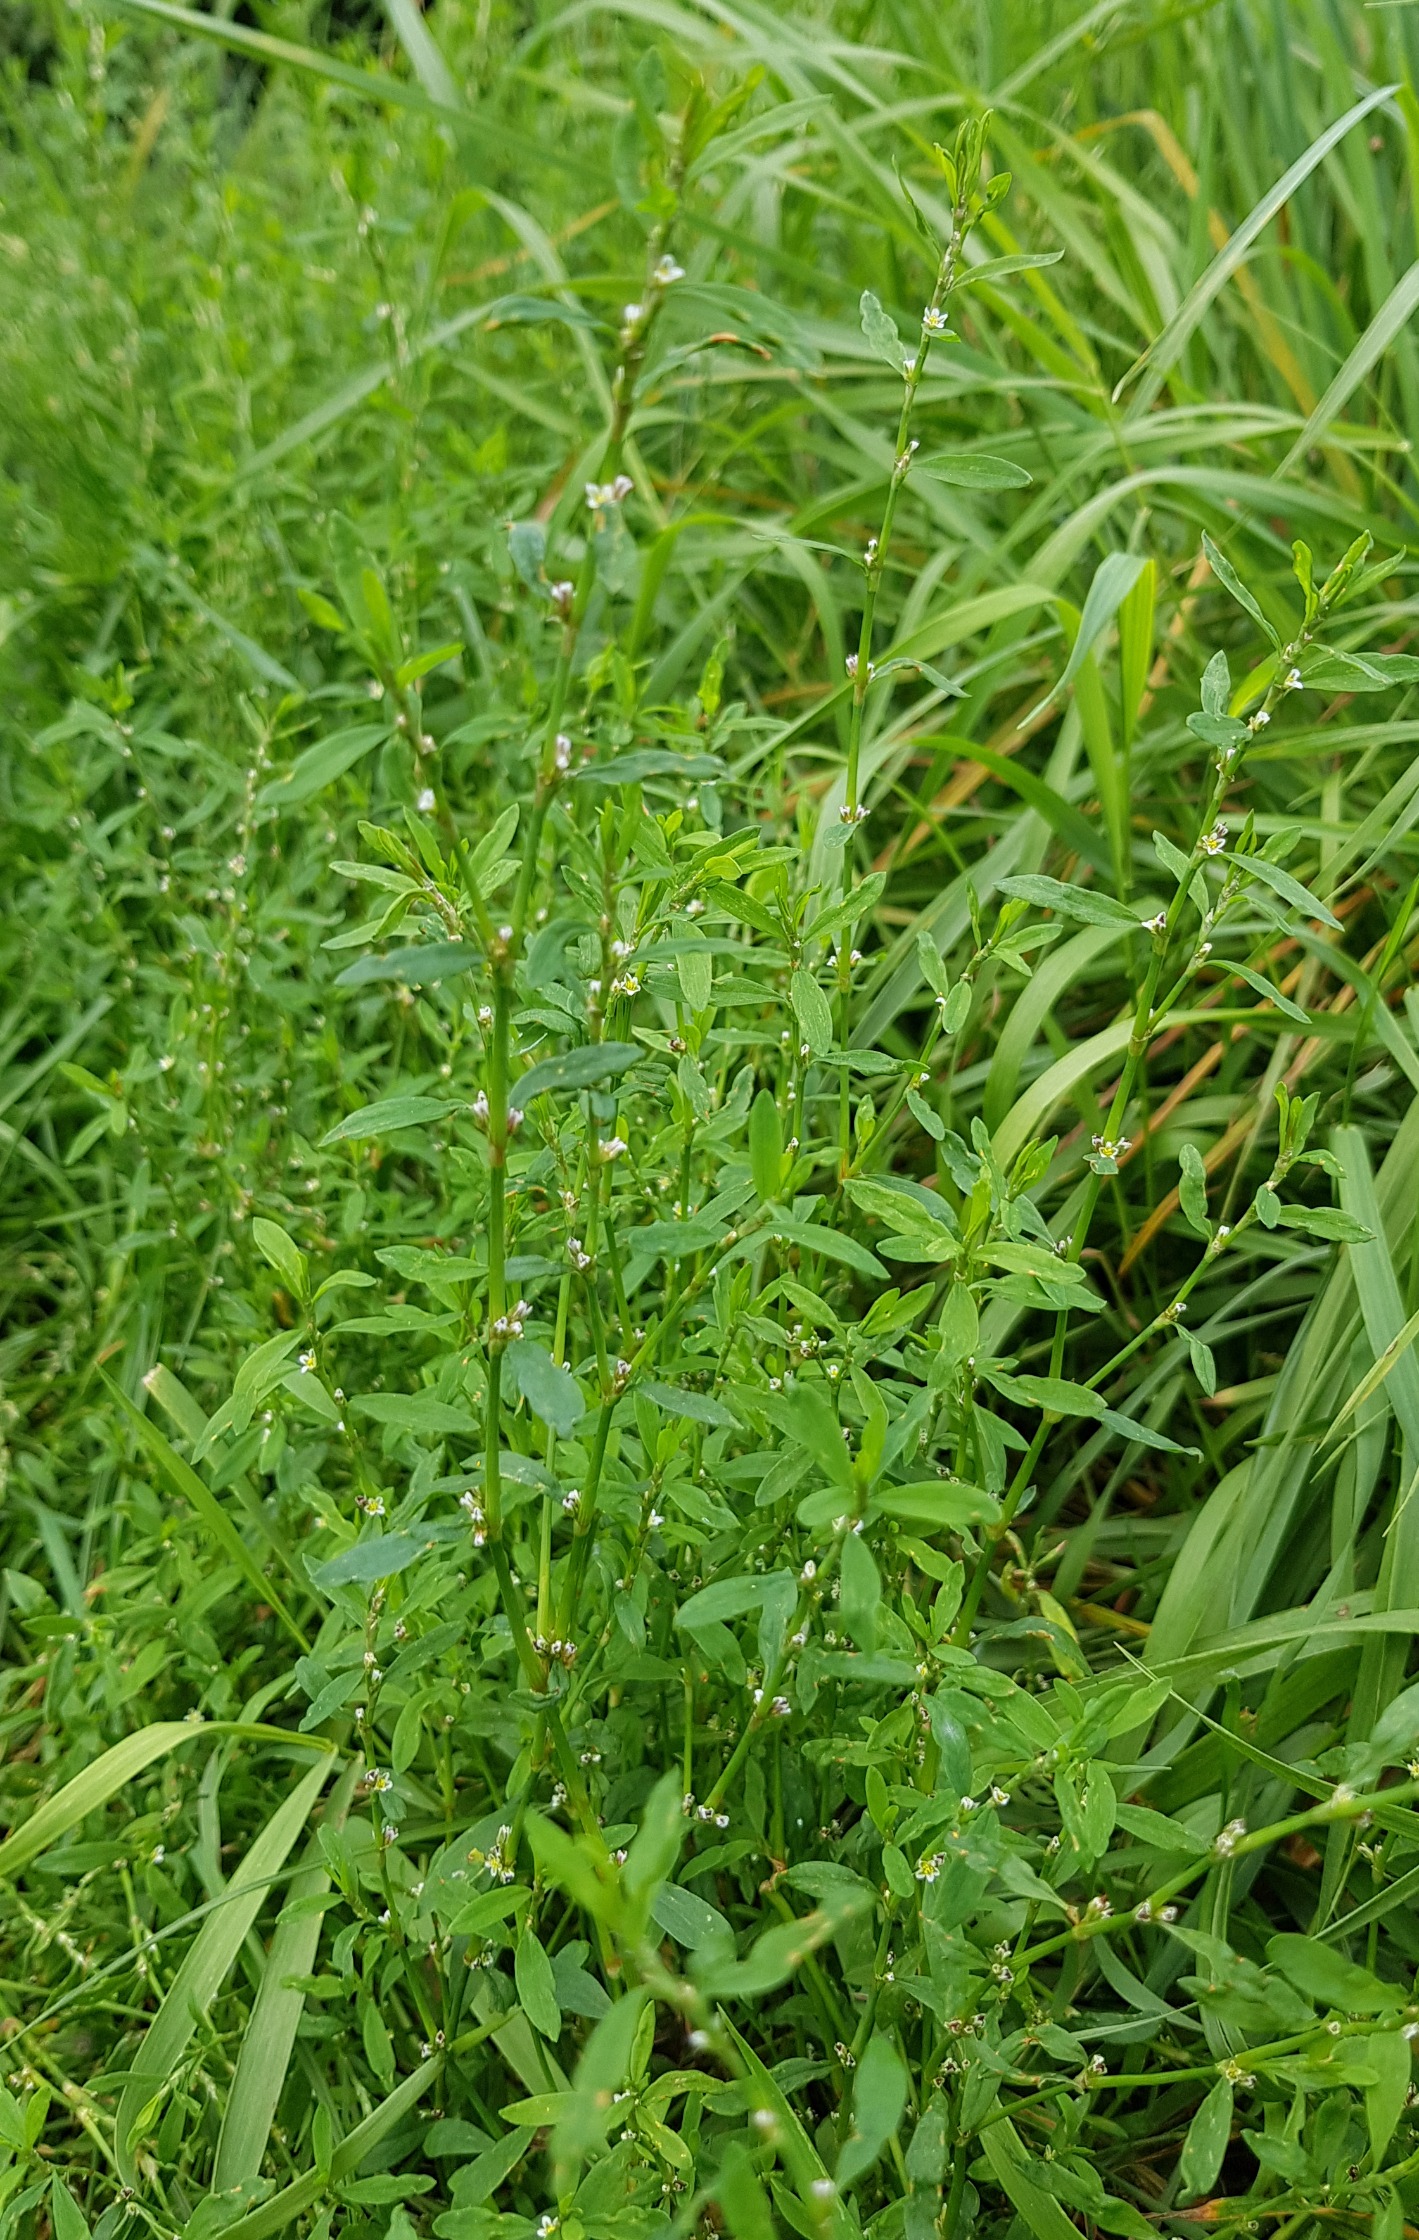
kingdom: Plantae
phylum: Tracheophyta
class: Magnoliopsida
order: Caryophyllales
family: Polygonaceae
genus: Polygonum
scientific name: Polygonum aviculare
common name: Spidsbladet vej-pileurt
